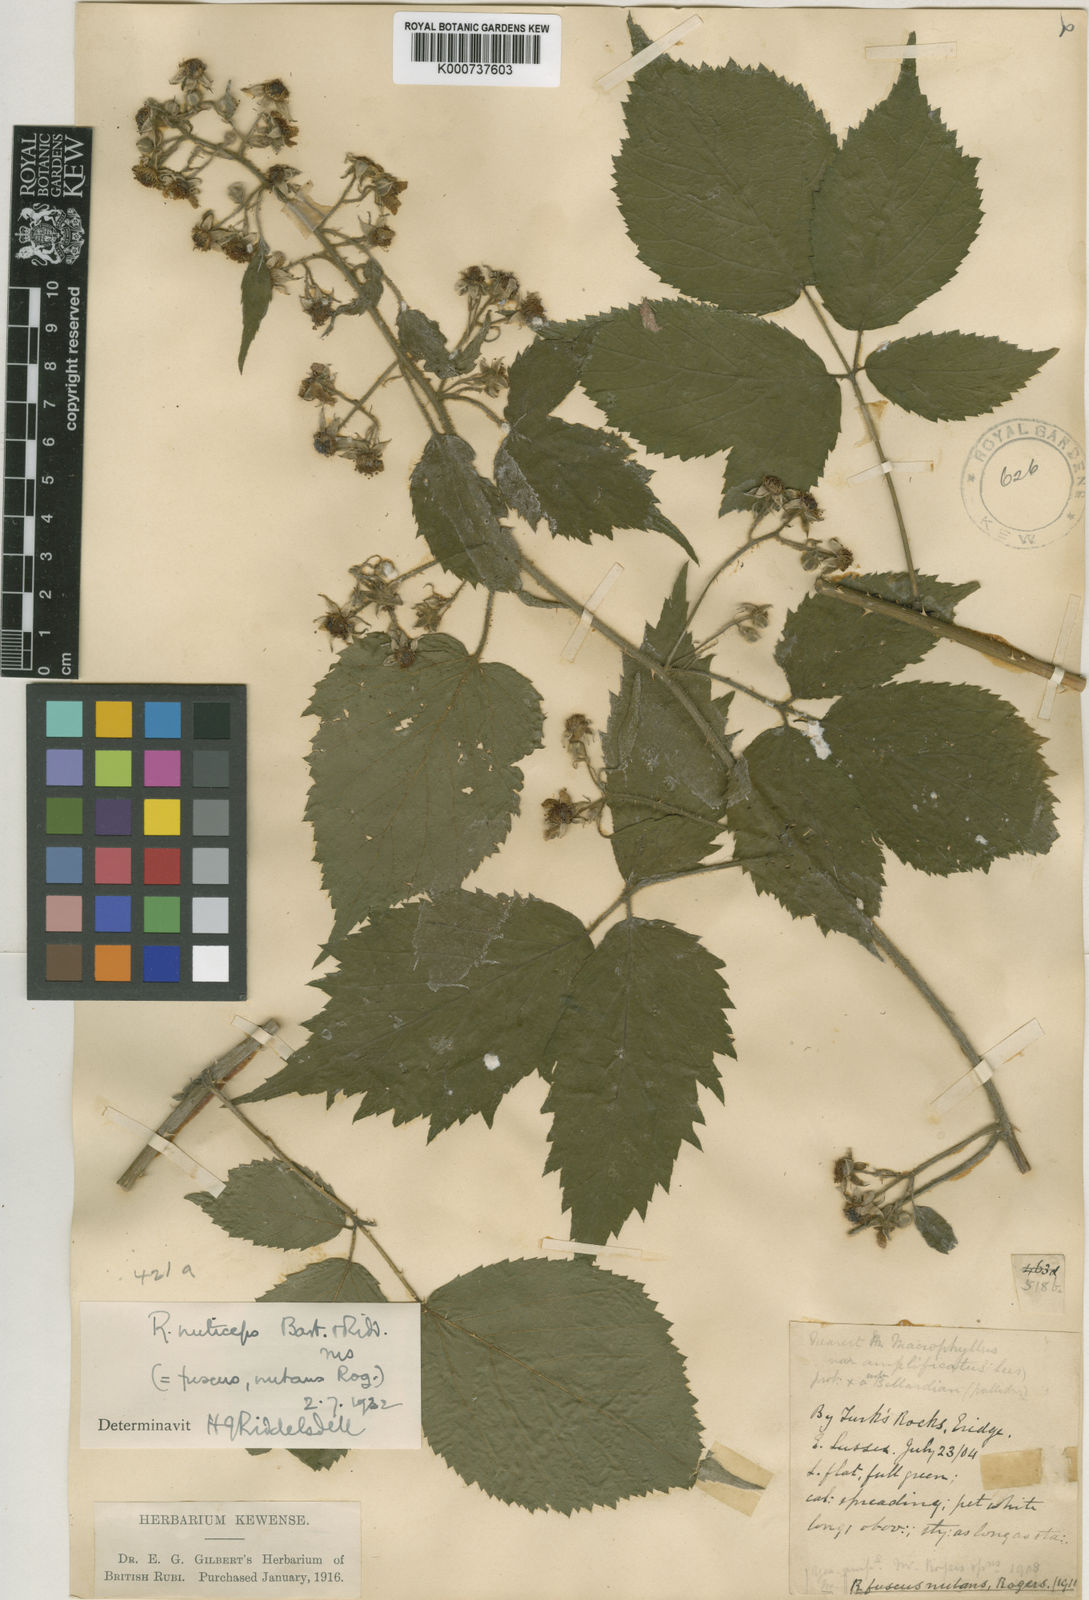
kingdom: Plantae
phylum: Tracheophyta
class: Magnoliopsida
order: Rosales
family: Rosaceae
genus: Rubus
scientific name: Rubus
